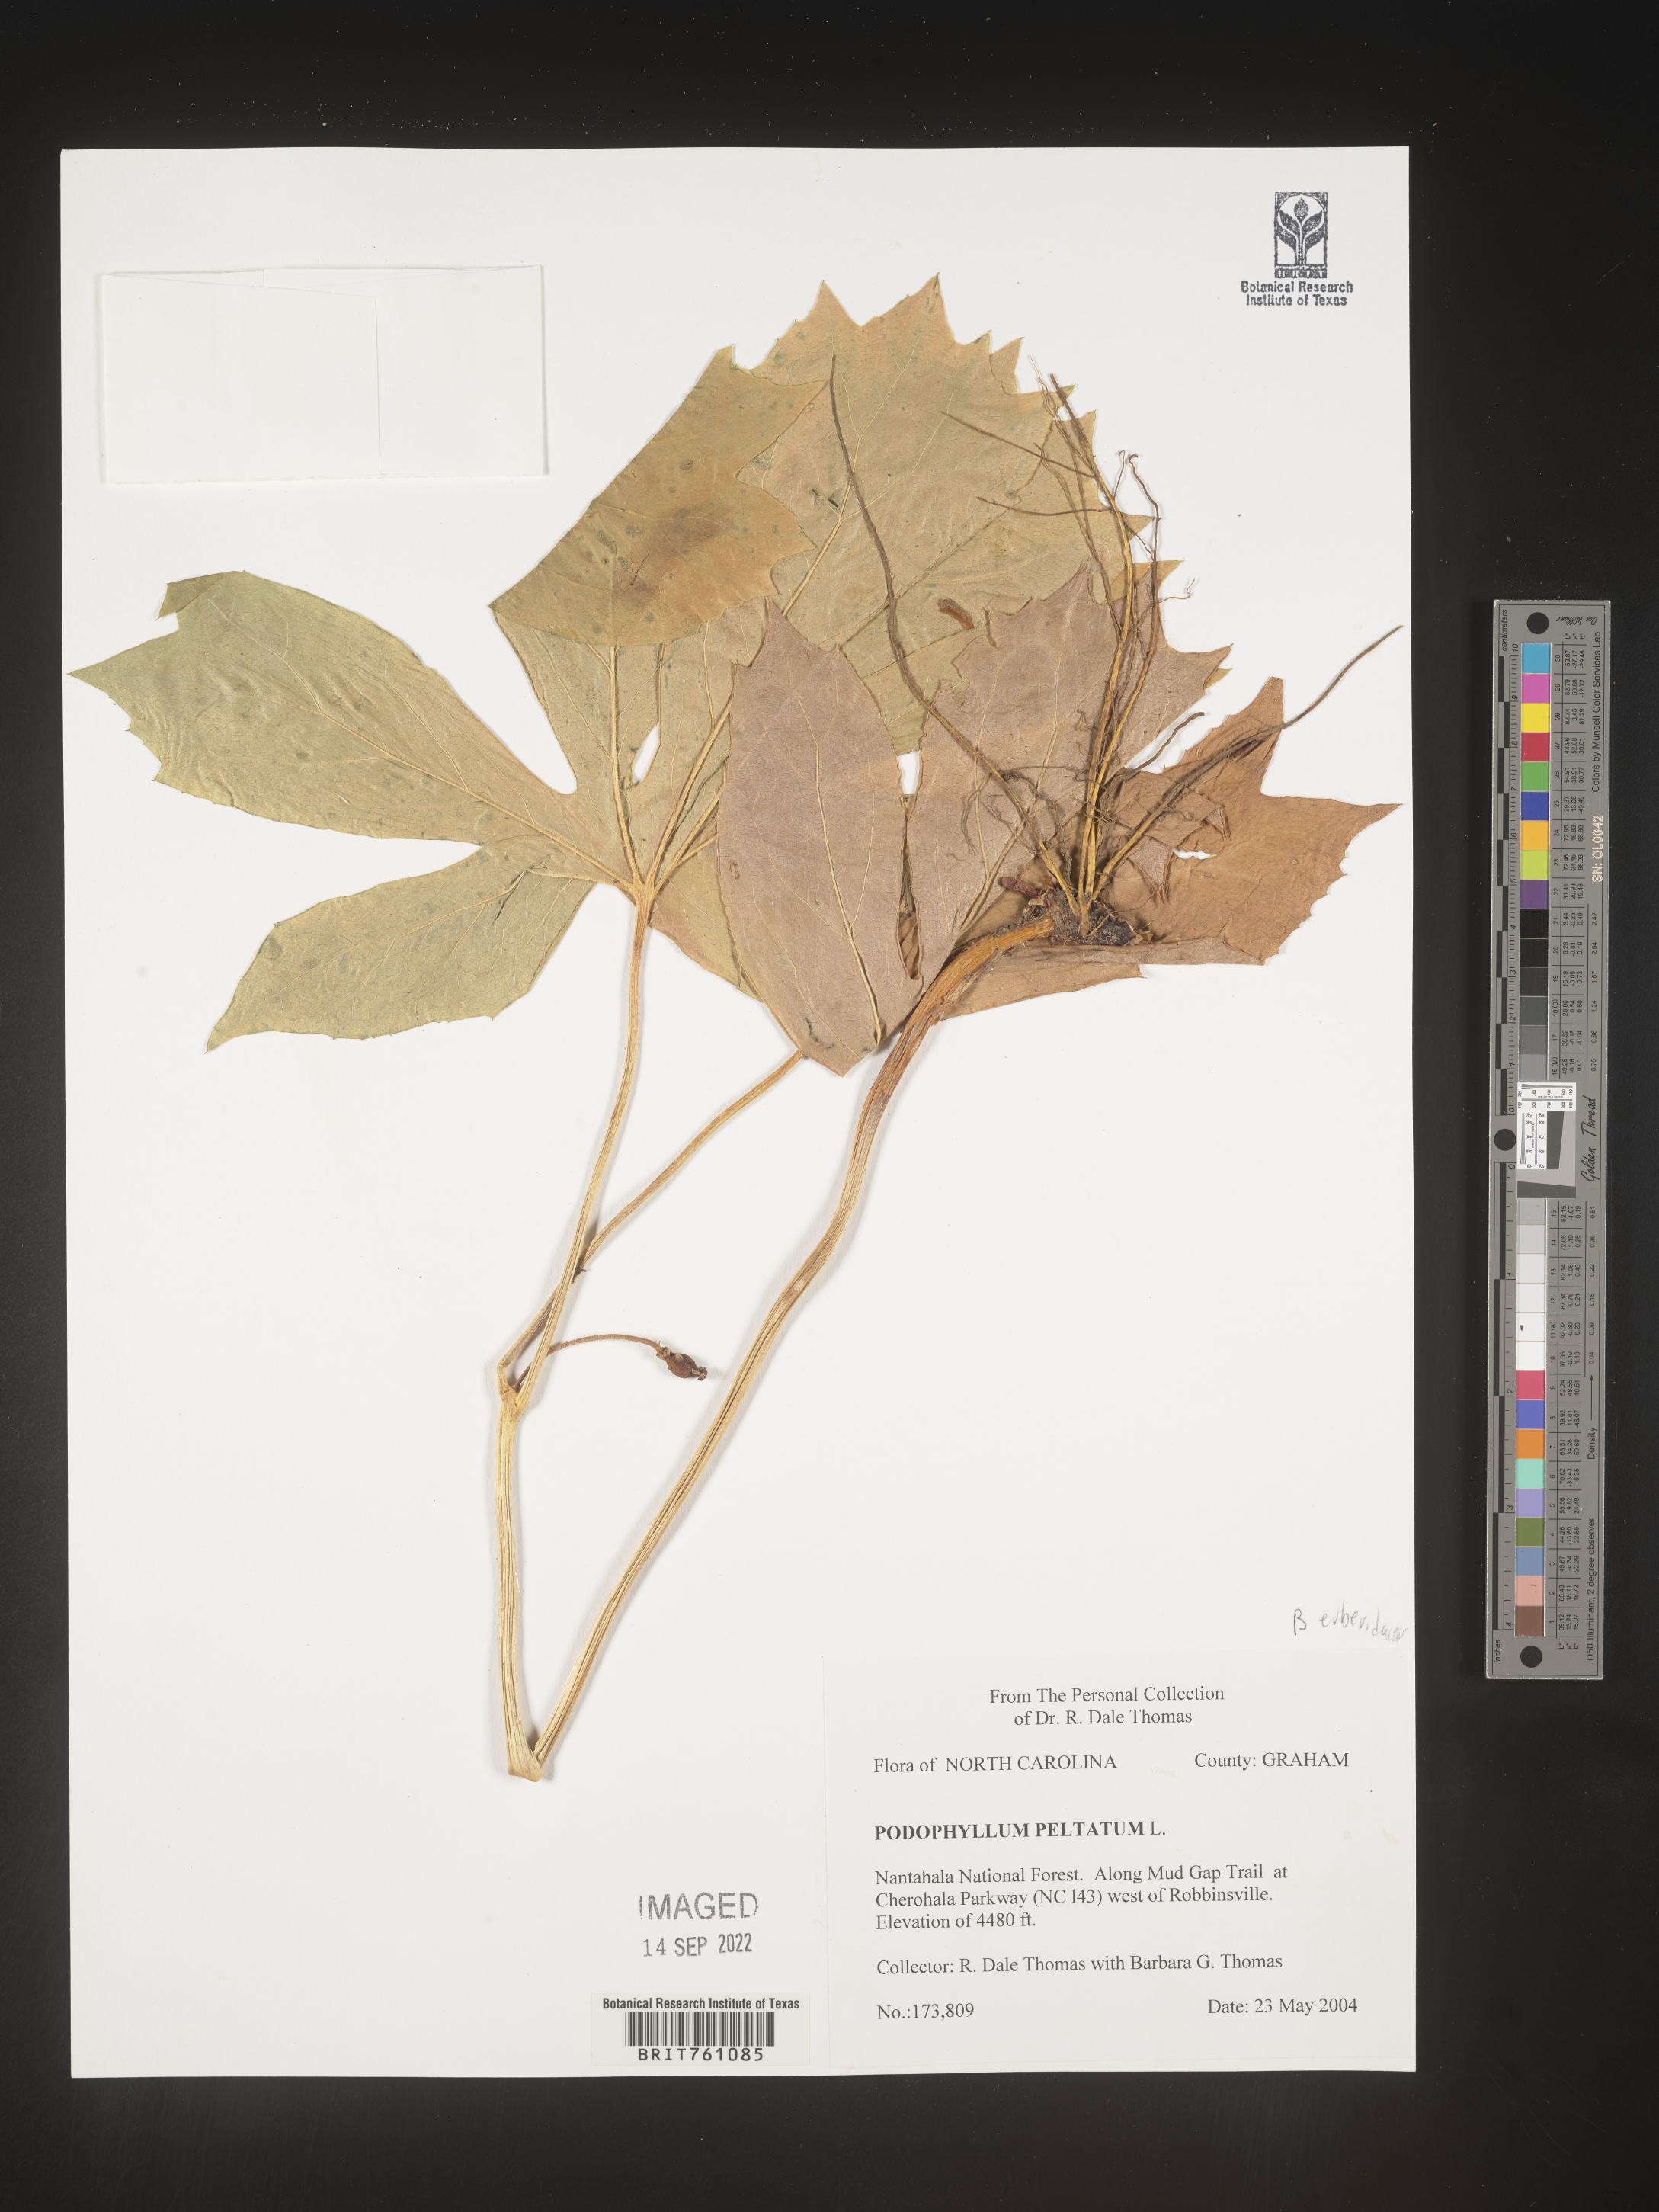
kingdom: Plantae
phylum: Tracheophyta
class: Magnoliopsida
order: Ranunculales
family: Berberidaceae
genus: Podophyllum
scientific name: Podophyllum peltatum
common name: Wild mandrake
